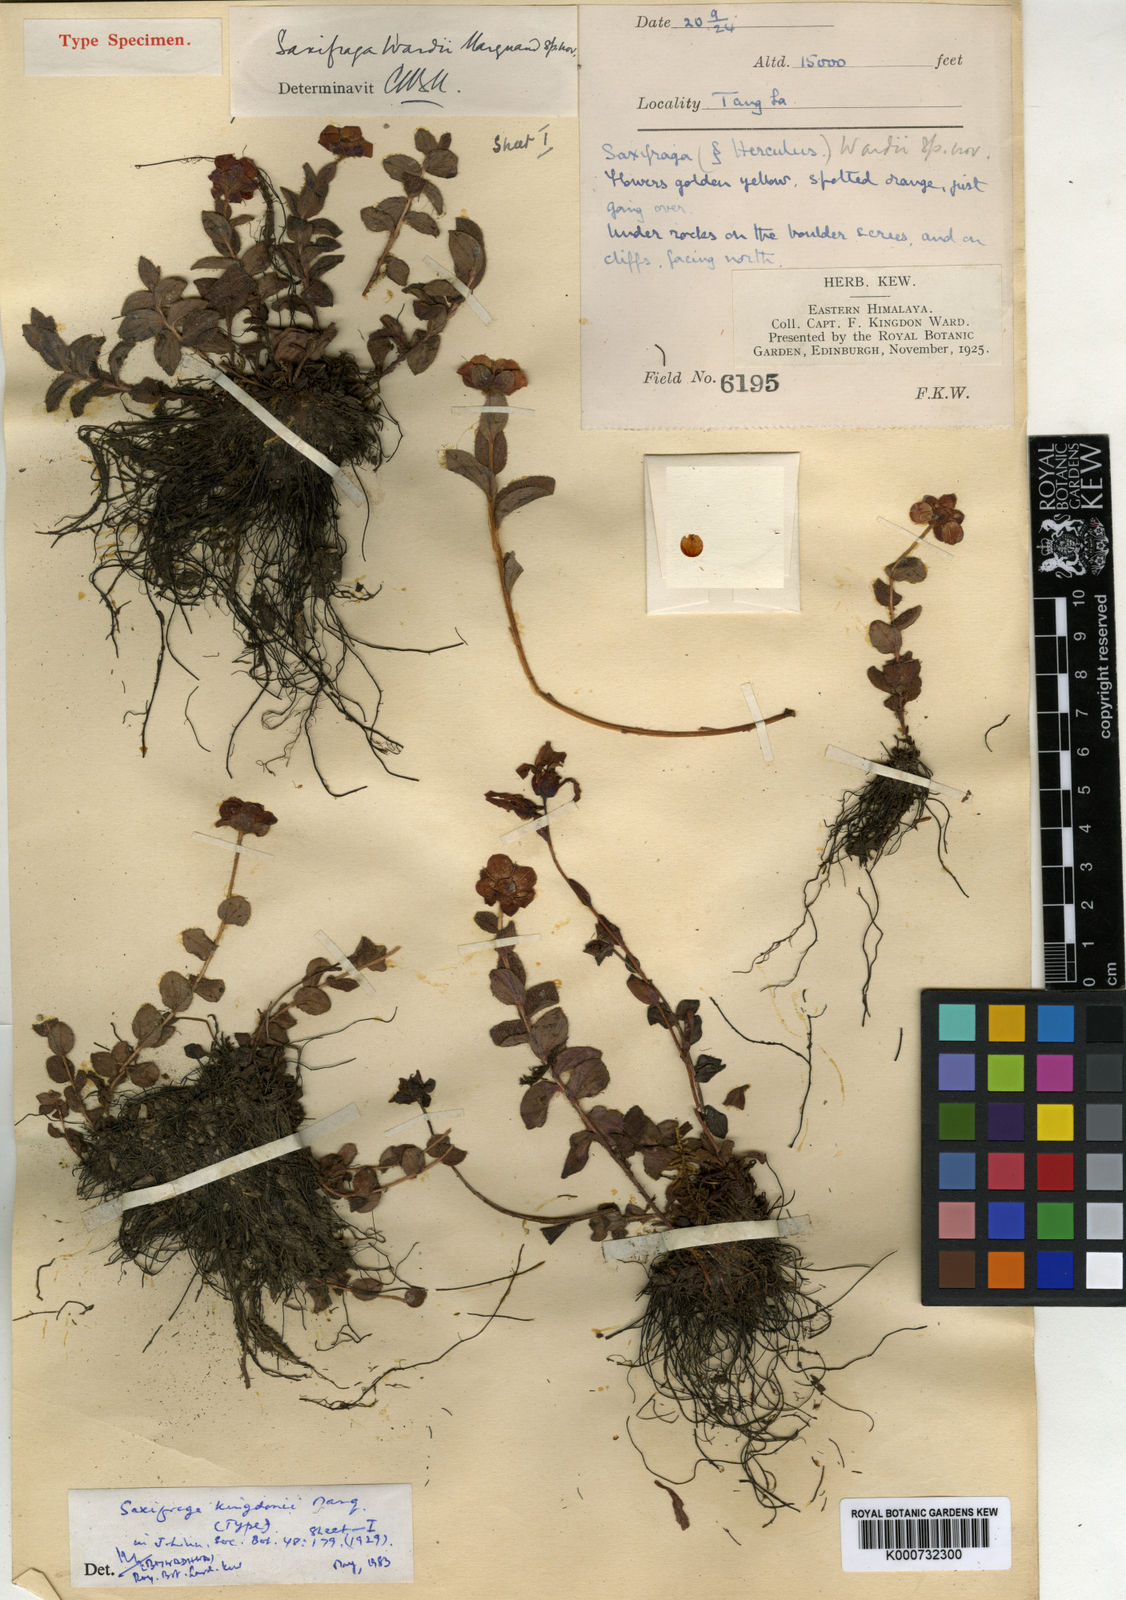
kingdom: Plantae
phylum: Tracheophyta
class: Magnoliopsida
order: Saxifragales
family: Saxifragaceae
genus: Saxifraga
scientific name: Saxifraga eglandulosa
